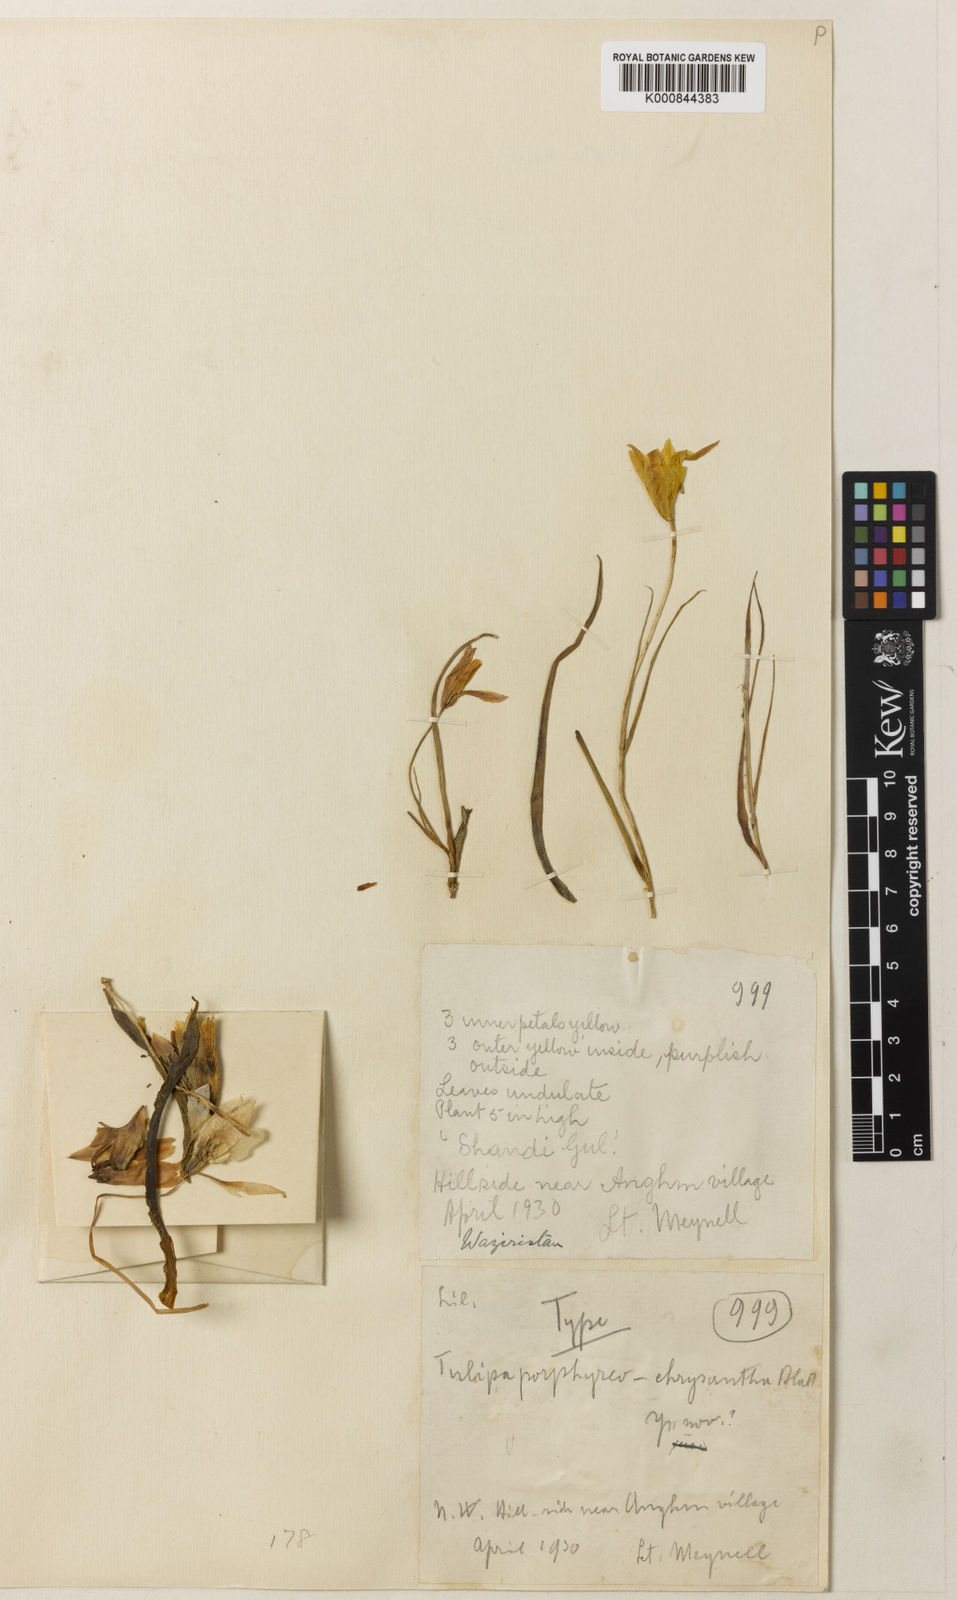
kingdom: Plantae
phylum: Tracheophyta
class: Liliopsida
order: Liliales
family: Liliaceae
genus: Tulipa
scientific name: Tulipa
